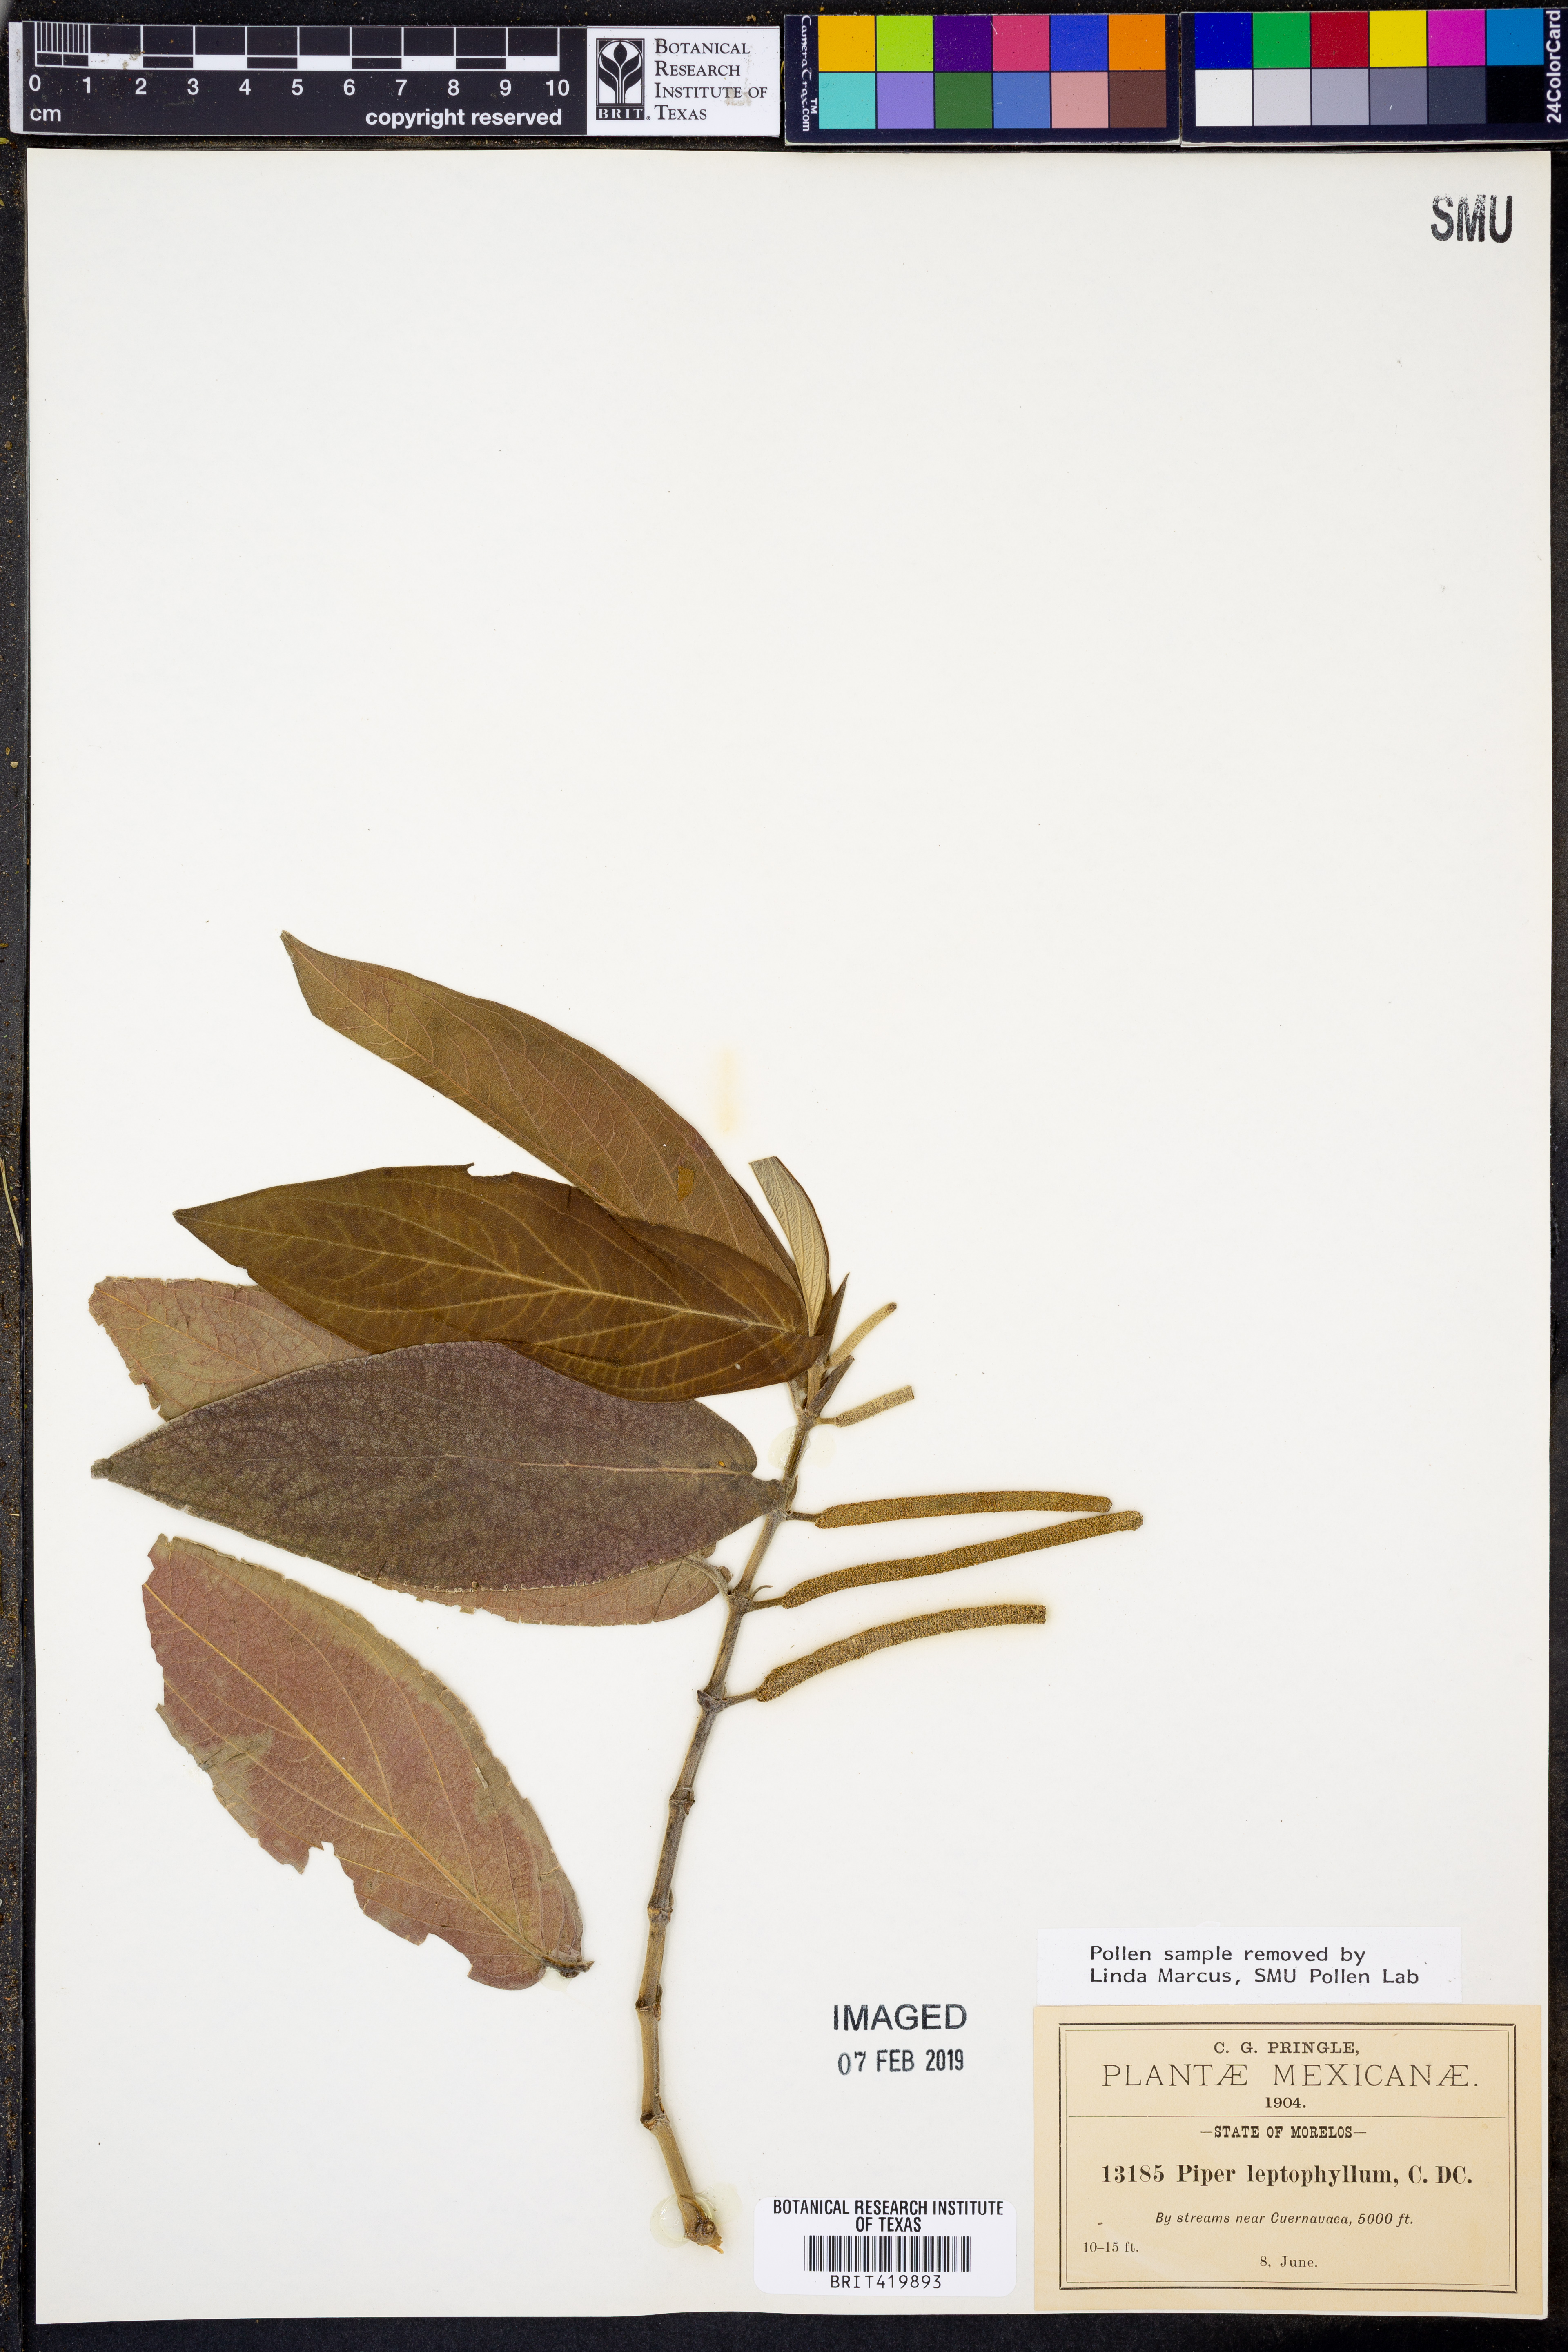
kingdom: Plantae
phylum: Tracheophyta
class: Magnoliopsida
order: Piperales
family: Piperaceae
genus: Piper
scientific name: Piper eriopodon
